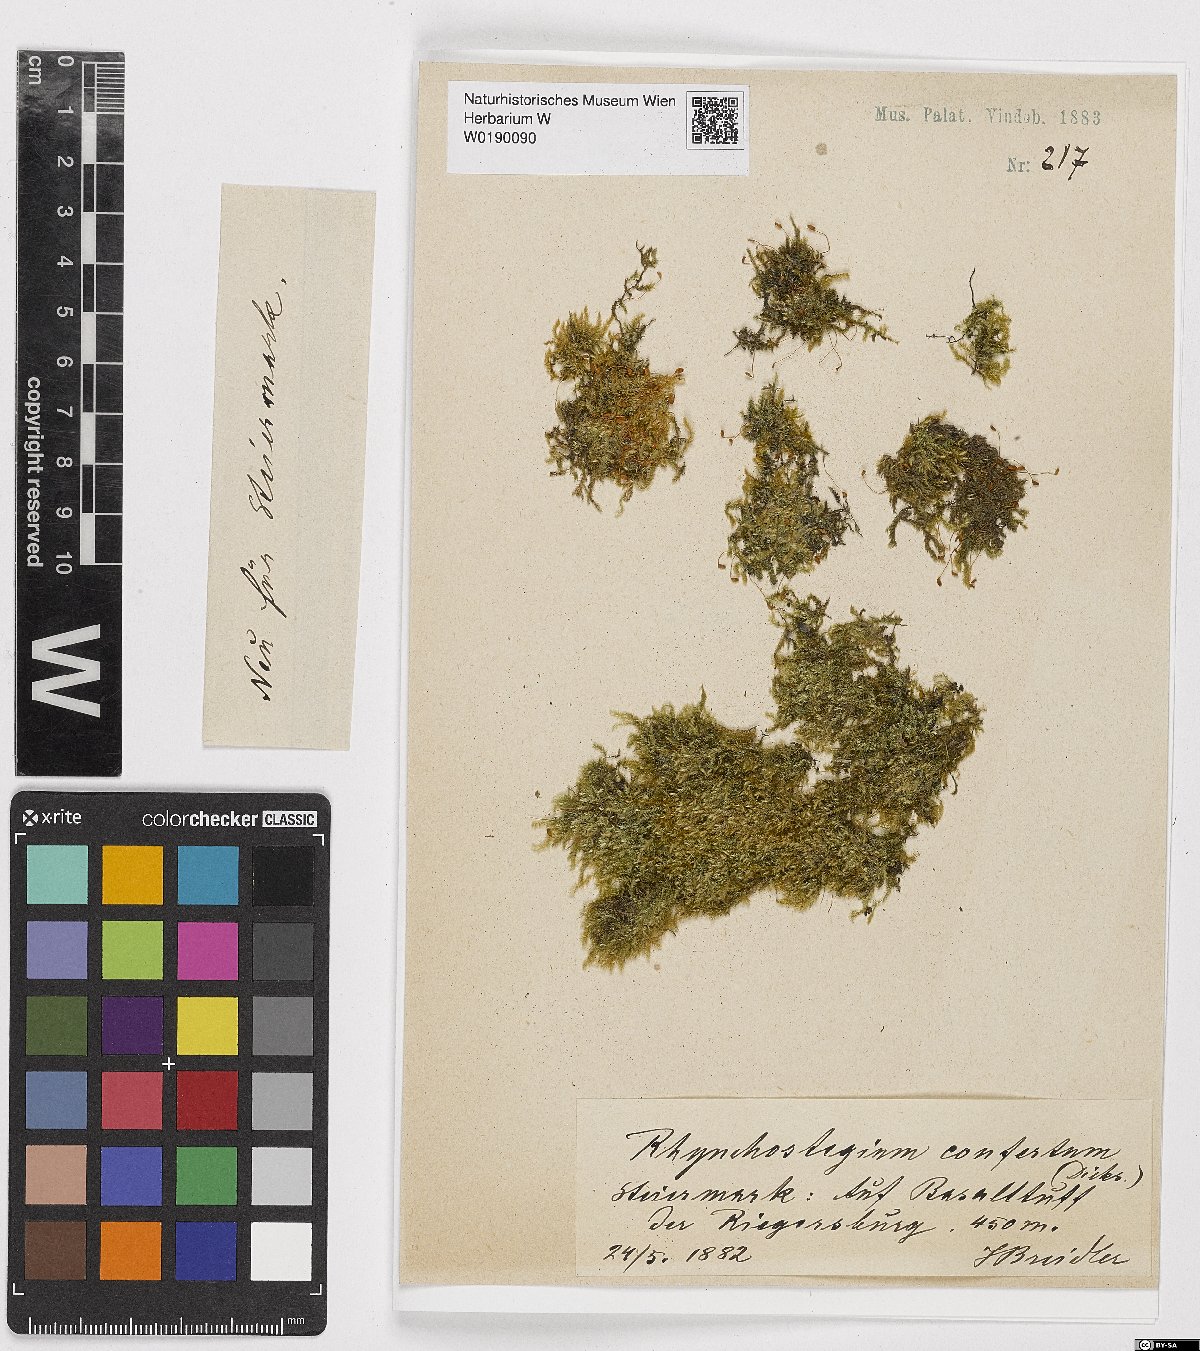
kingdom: Plantae
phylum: Bryophyta
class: Bryopsida
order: Hypnales
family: Brachytheciaceae
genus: Rhynchostegium
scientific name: Rhynchostegium confertum
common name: Clustered feather-moss
